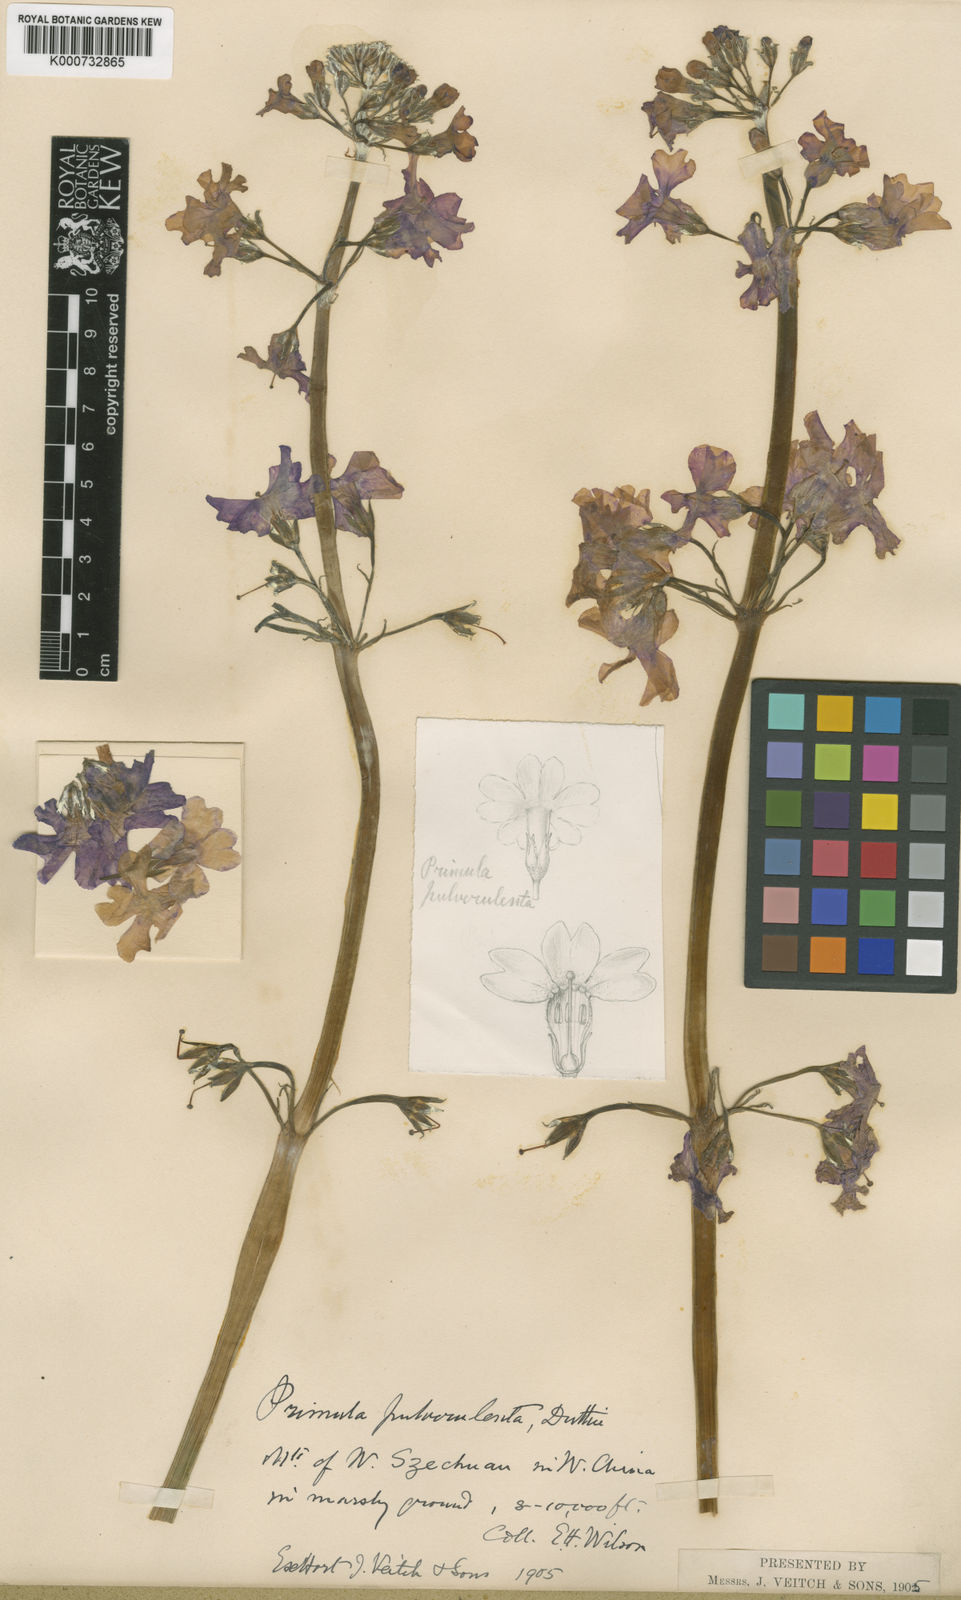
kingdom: Plantae
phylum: Tracheophyta
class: Magnoliopsida
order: Ericales
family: Primulaceae
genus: Primula
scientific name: Primula pulverulenta
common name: Mealy cowslip
